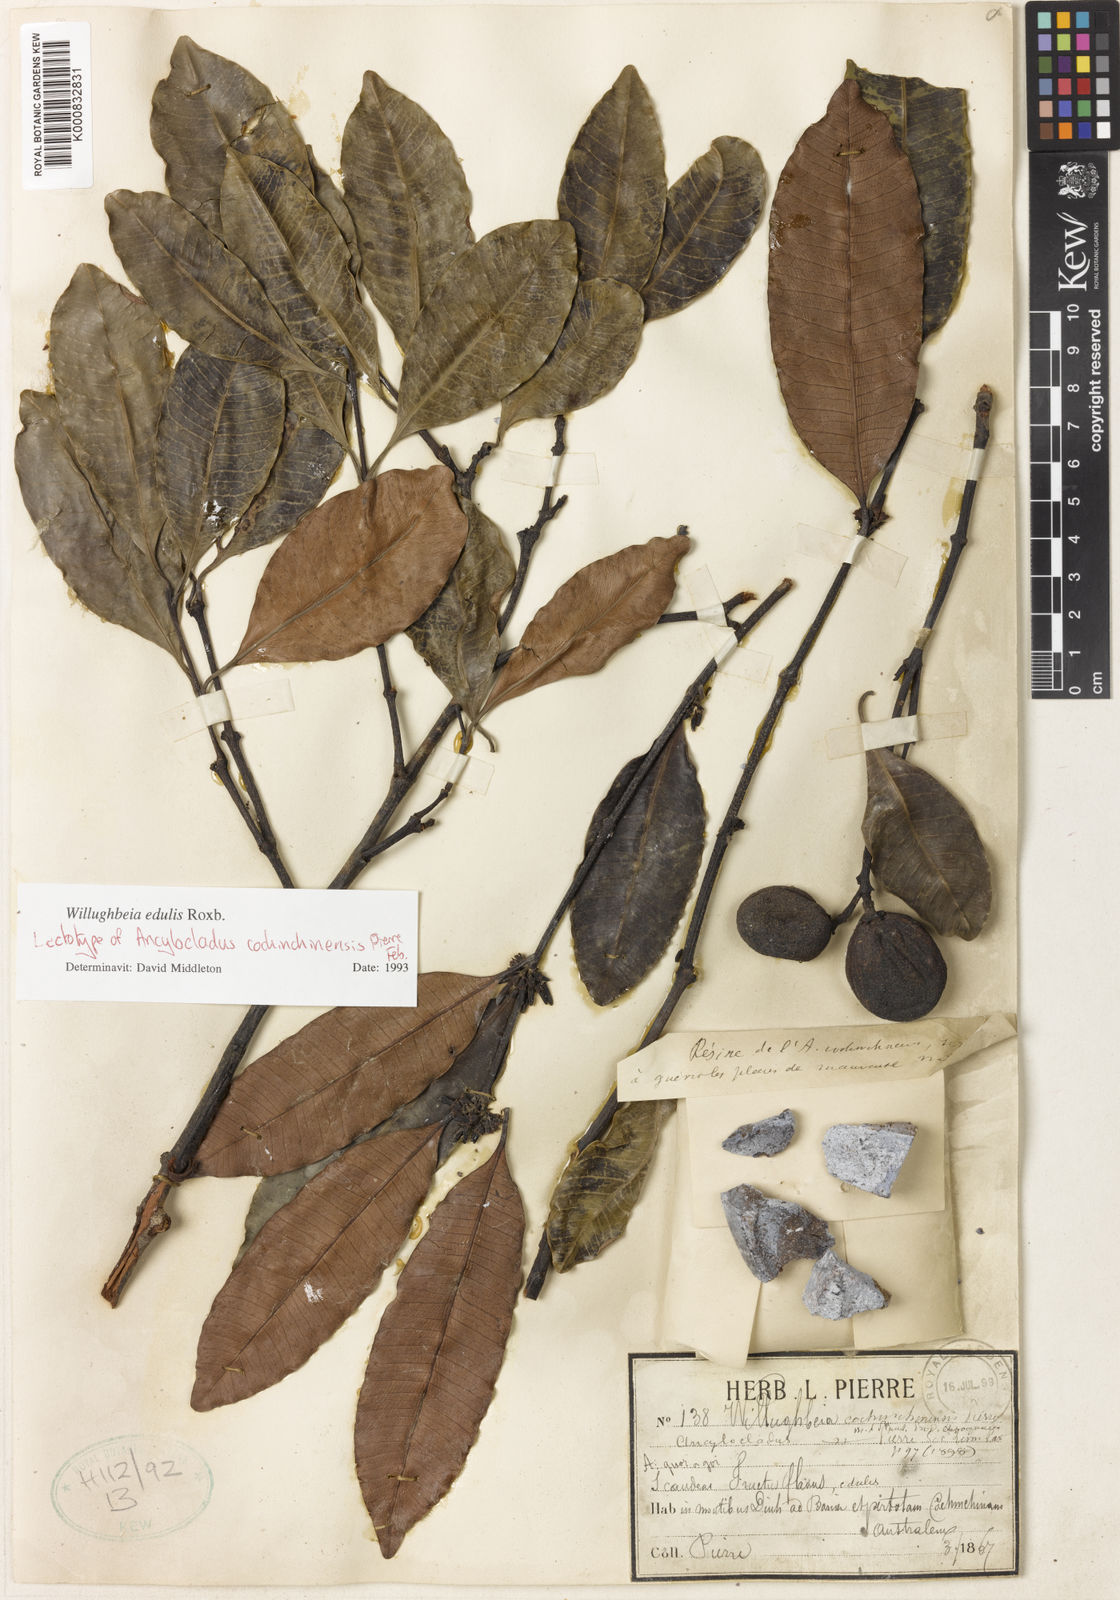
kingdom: Plantae
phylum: Tracheophyta
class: Magnoliopsida
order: Gentianales
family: Apocynaceae
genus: Willughbeia
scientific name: Willughbeia edulis
